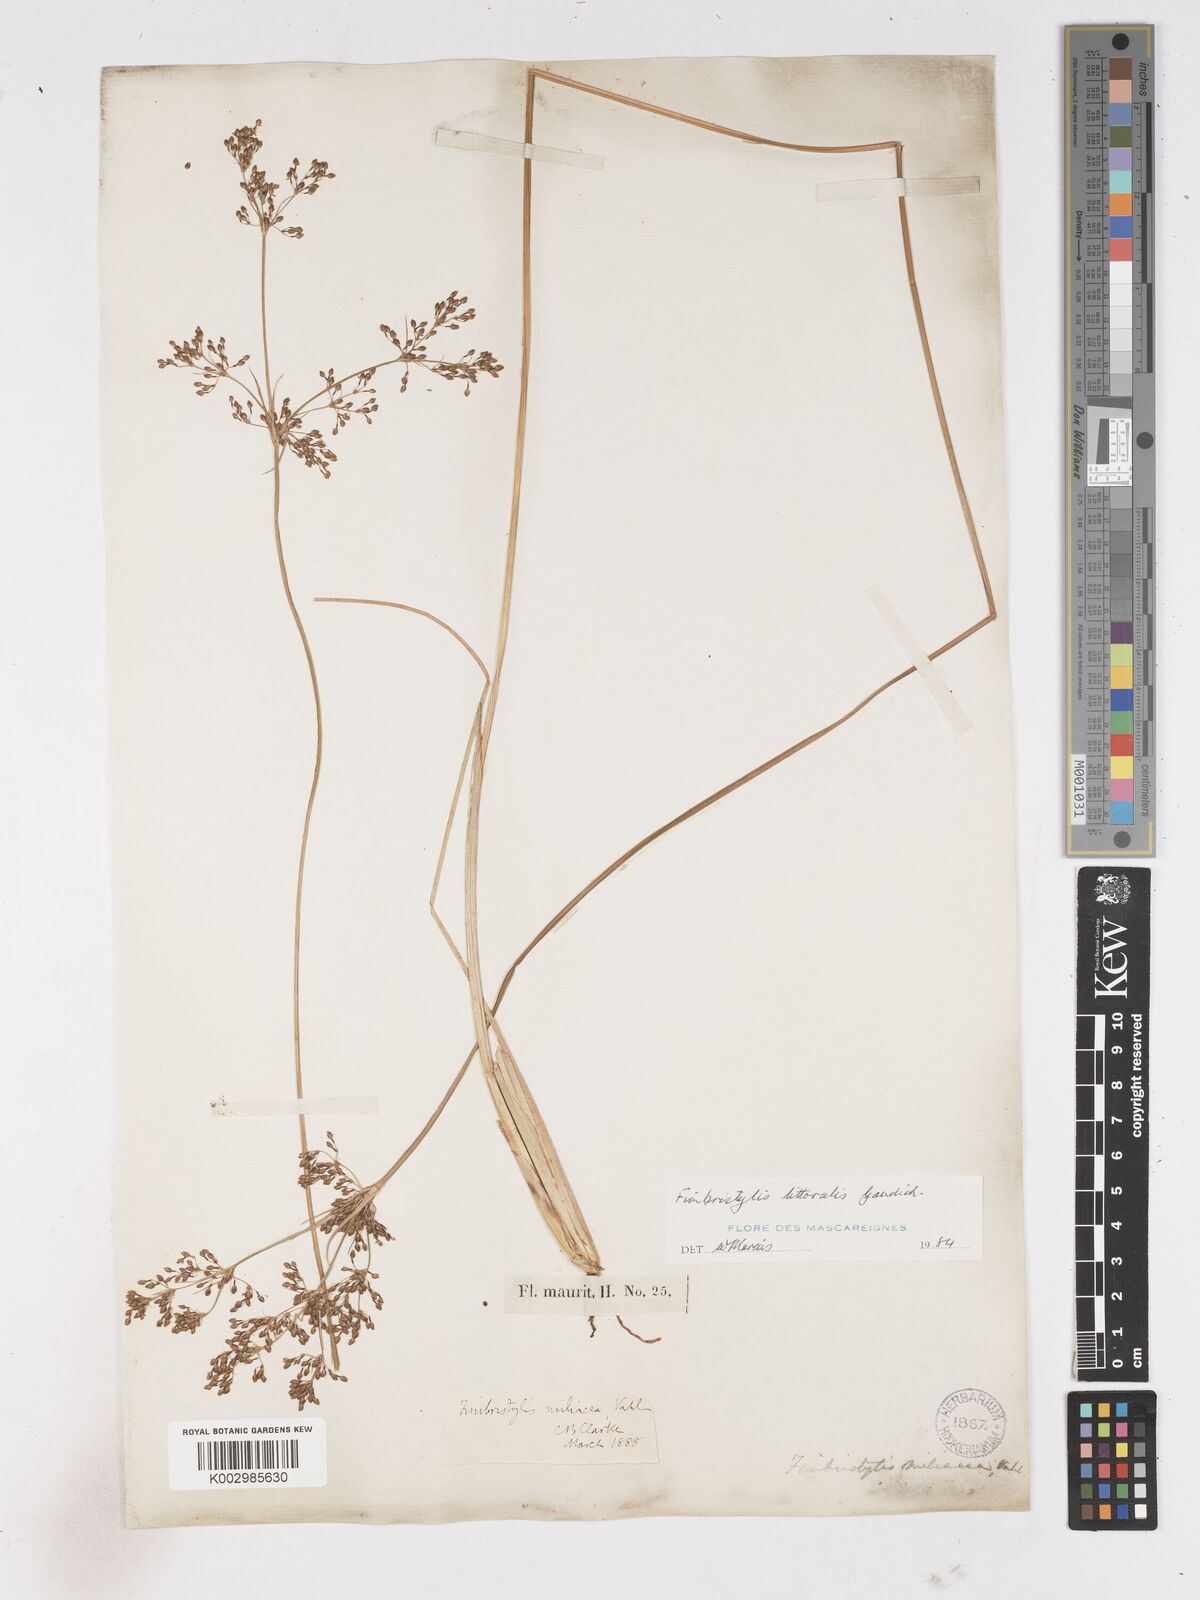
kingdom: Plantae
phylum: Tracheophyta
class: Liliopsida
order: Poales
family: Cyperaceae
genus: Fimbristylis
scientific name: Fimbristylis littoralis
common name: Fimbry
